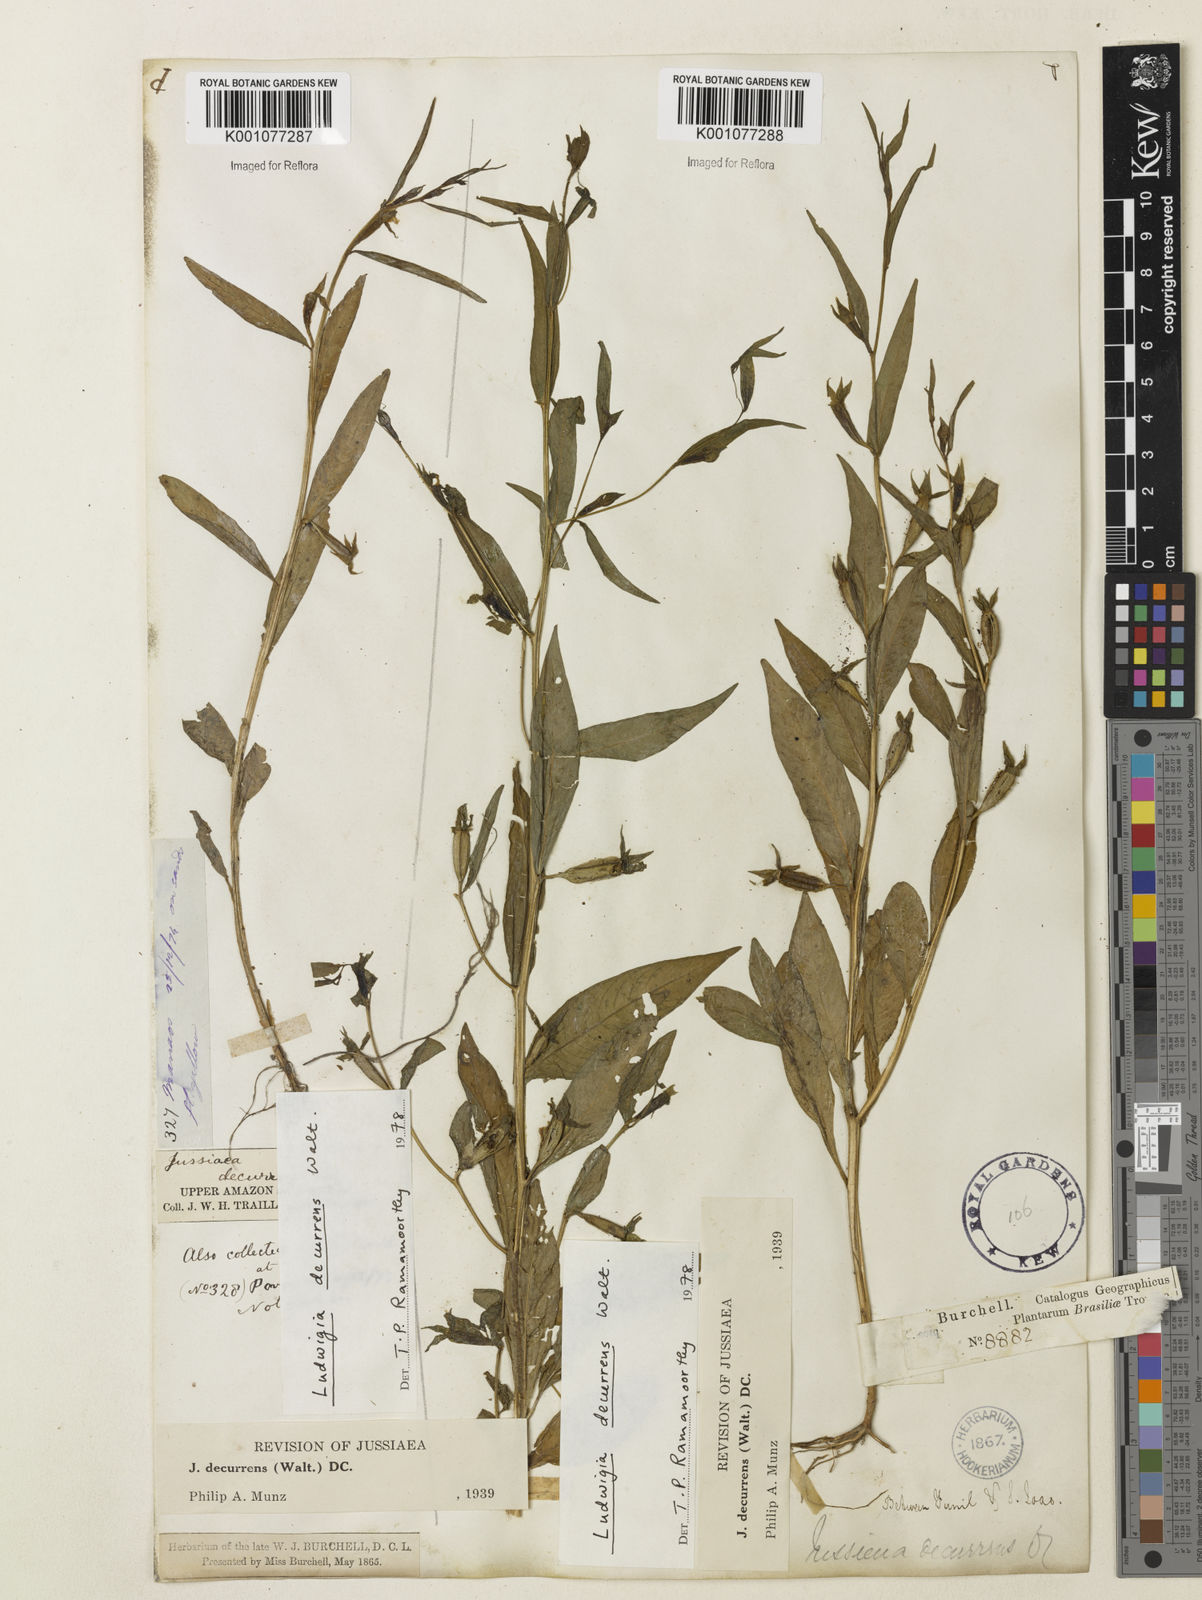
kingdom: Plantae
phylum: Tracheophyta
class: Magnoliopsida
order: Myrtales
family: Onagraceae
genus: Ludwigia
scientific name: Ludwigia decurrens
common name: Winged water-primrose
